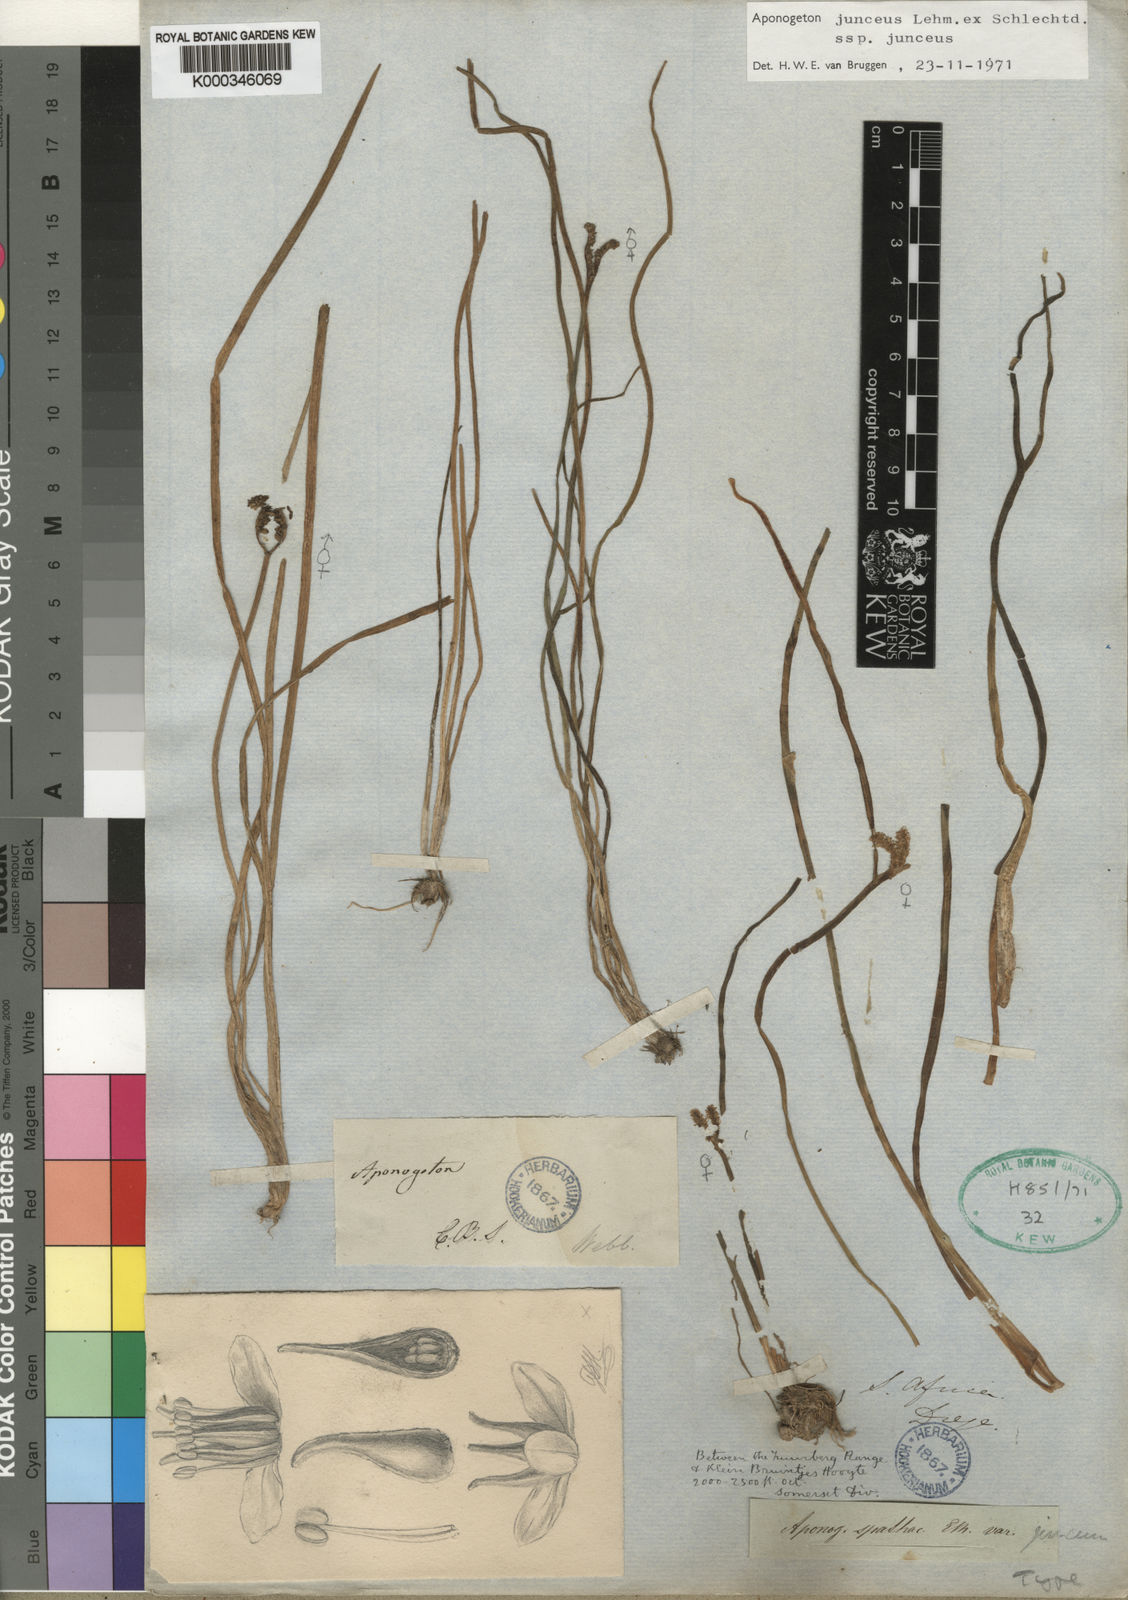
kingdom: Plantae
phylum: Tracheophyta
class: Liliopsida
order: Alismatales
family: Aponogetonaceae
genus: Aponogeton
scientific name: Aponogeton junceus
